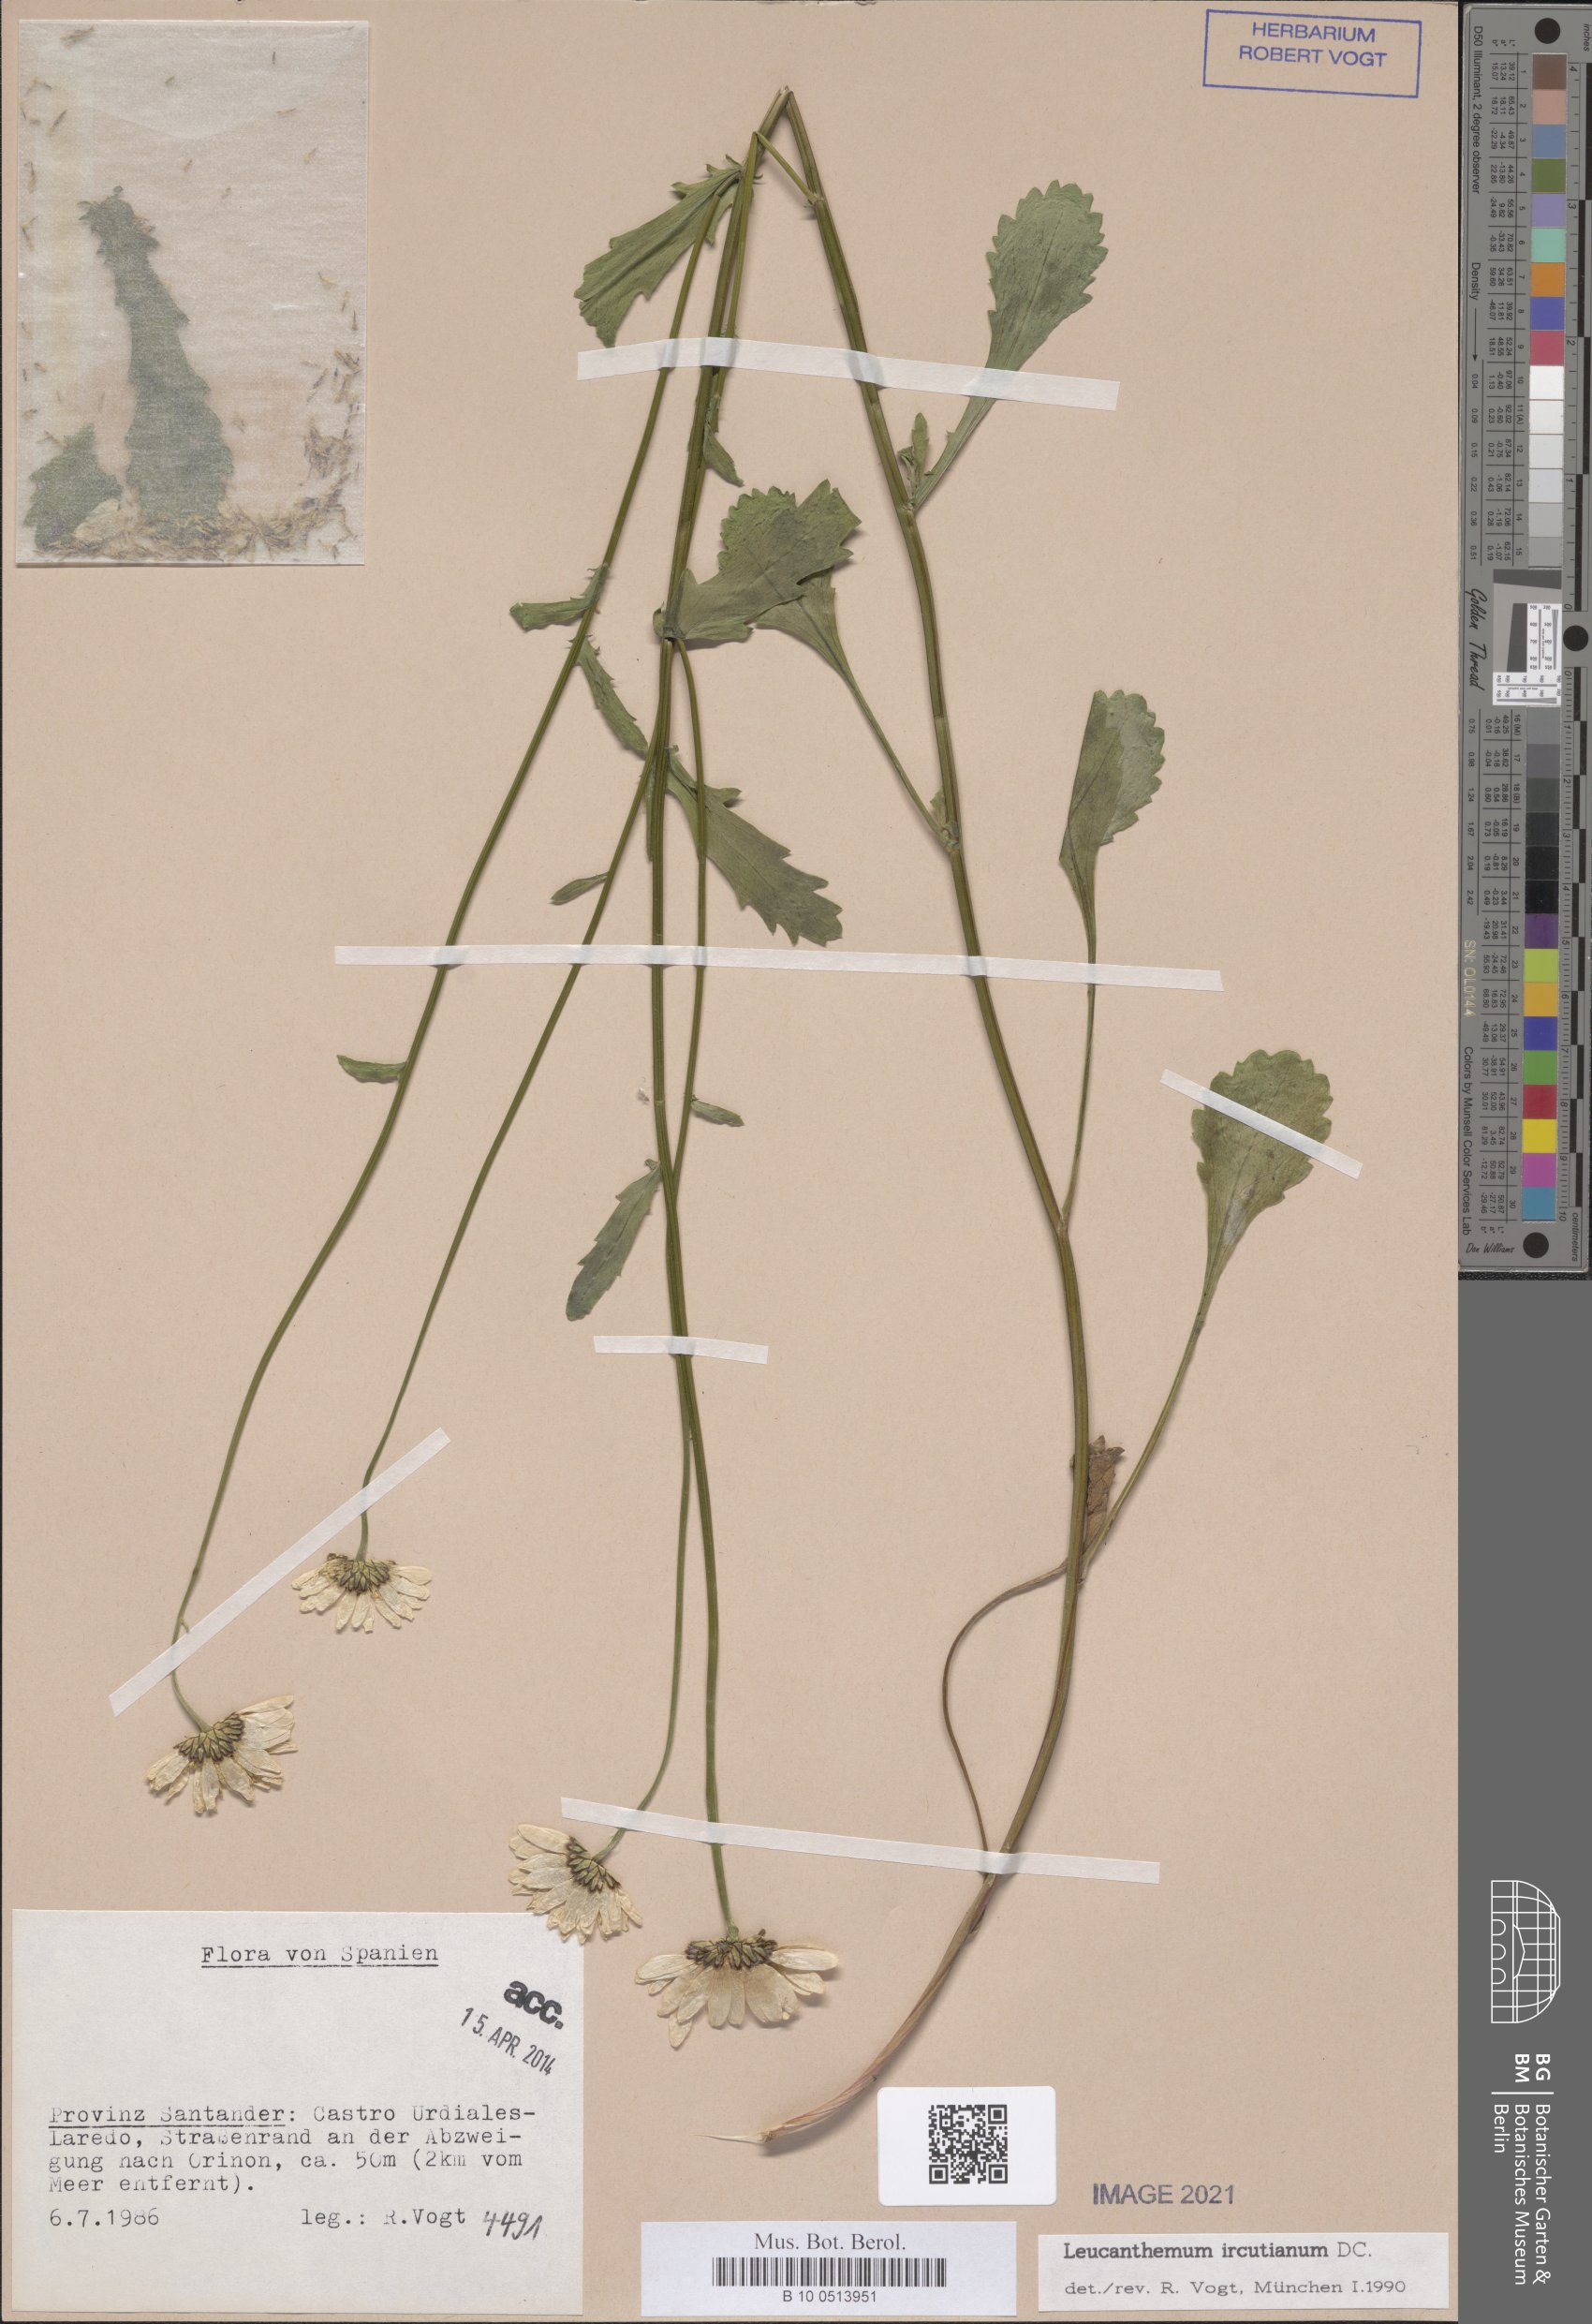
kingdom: Plantae
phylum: Tracheophyta
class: Magnoliopsida
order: Asterales
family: Asteraceae
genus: Leucanthemum
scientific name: Leucanthemum ircutianum
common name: Daisy
